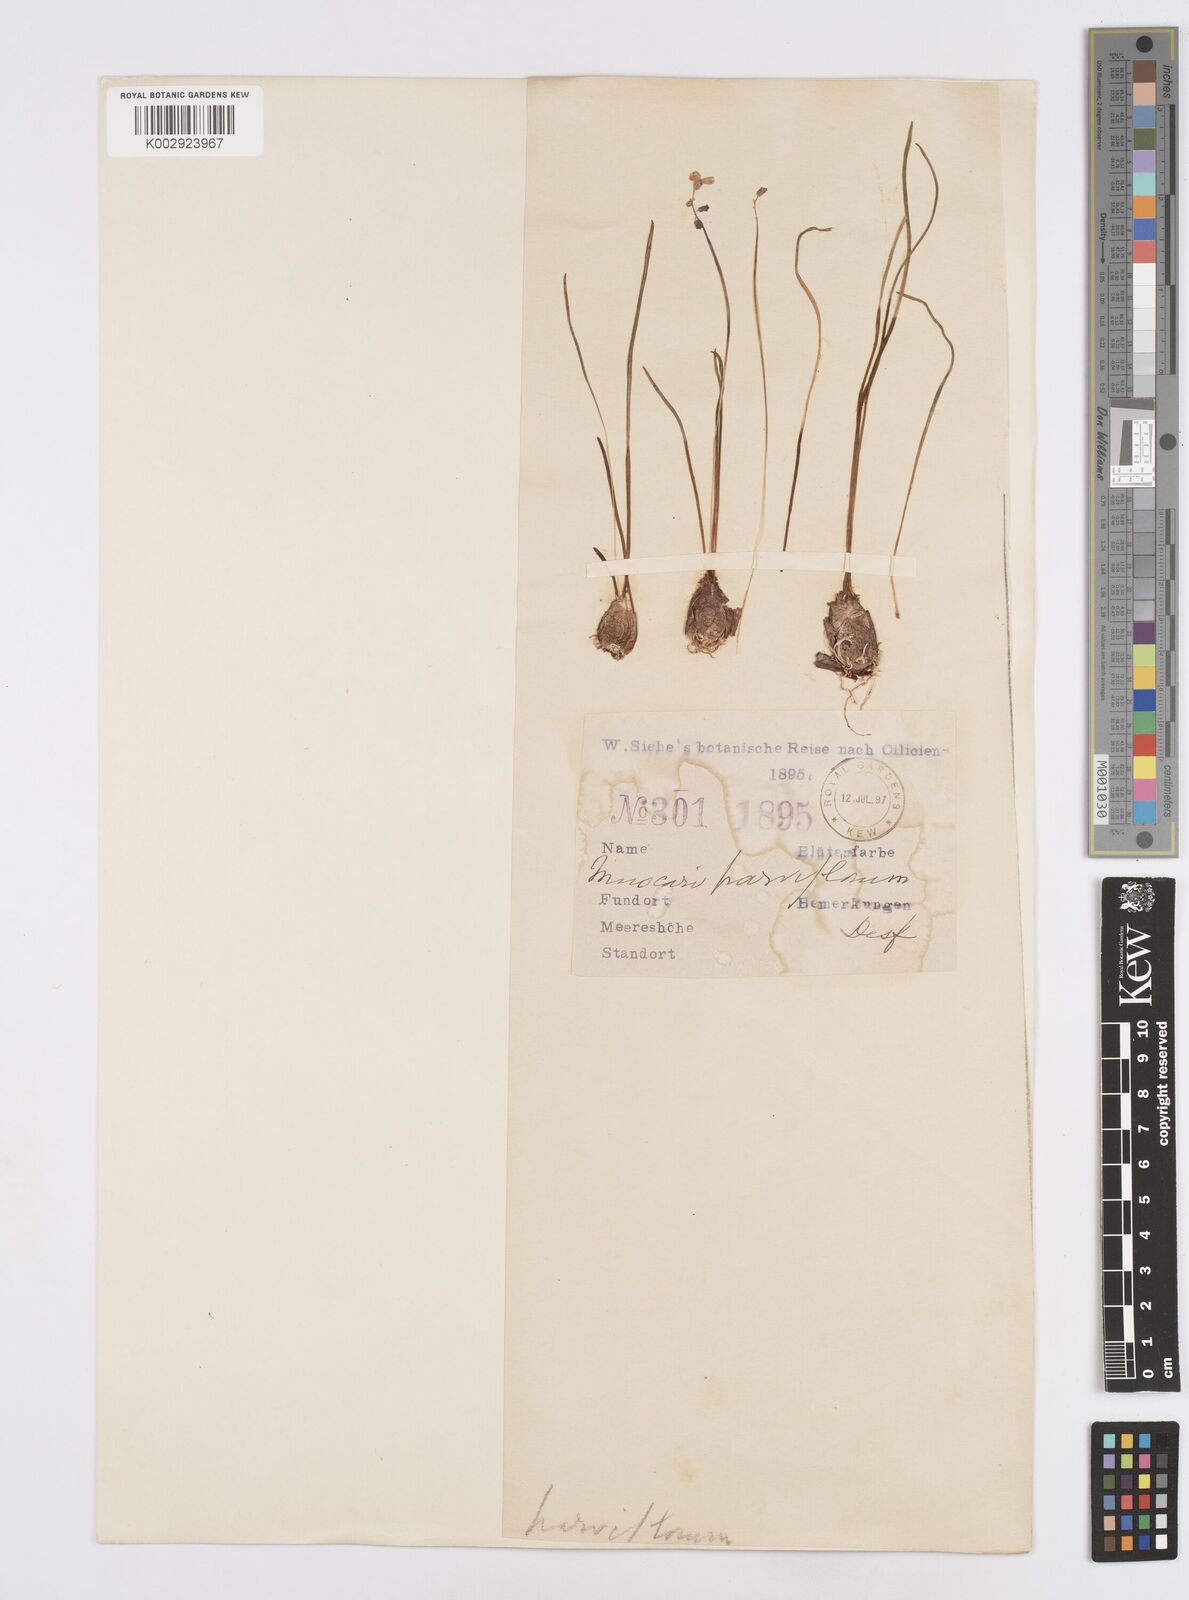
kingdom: Plantae
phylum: Tracheophyta
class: Liliopsida
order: Asparagales
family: Asparagaceae
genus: Muscari
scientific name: Muscari parviflorum
